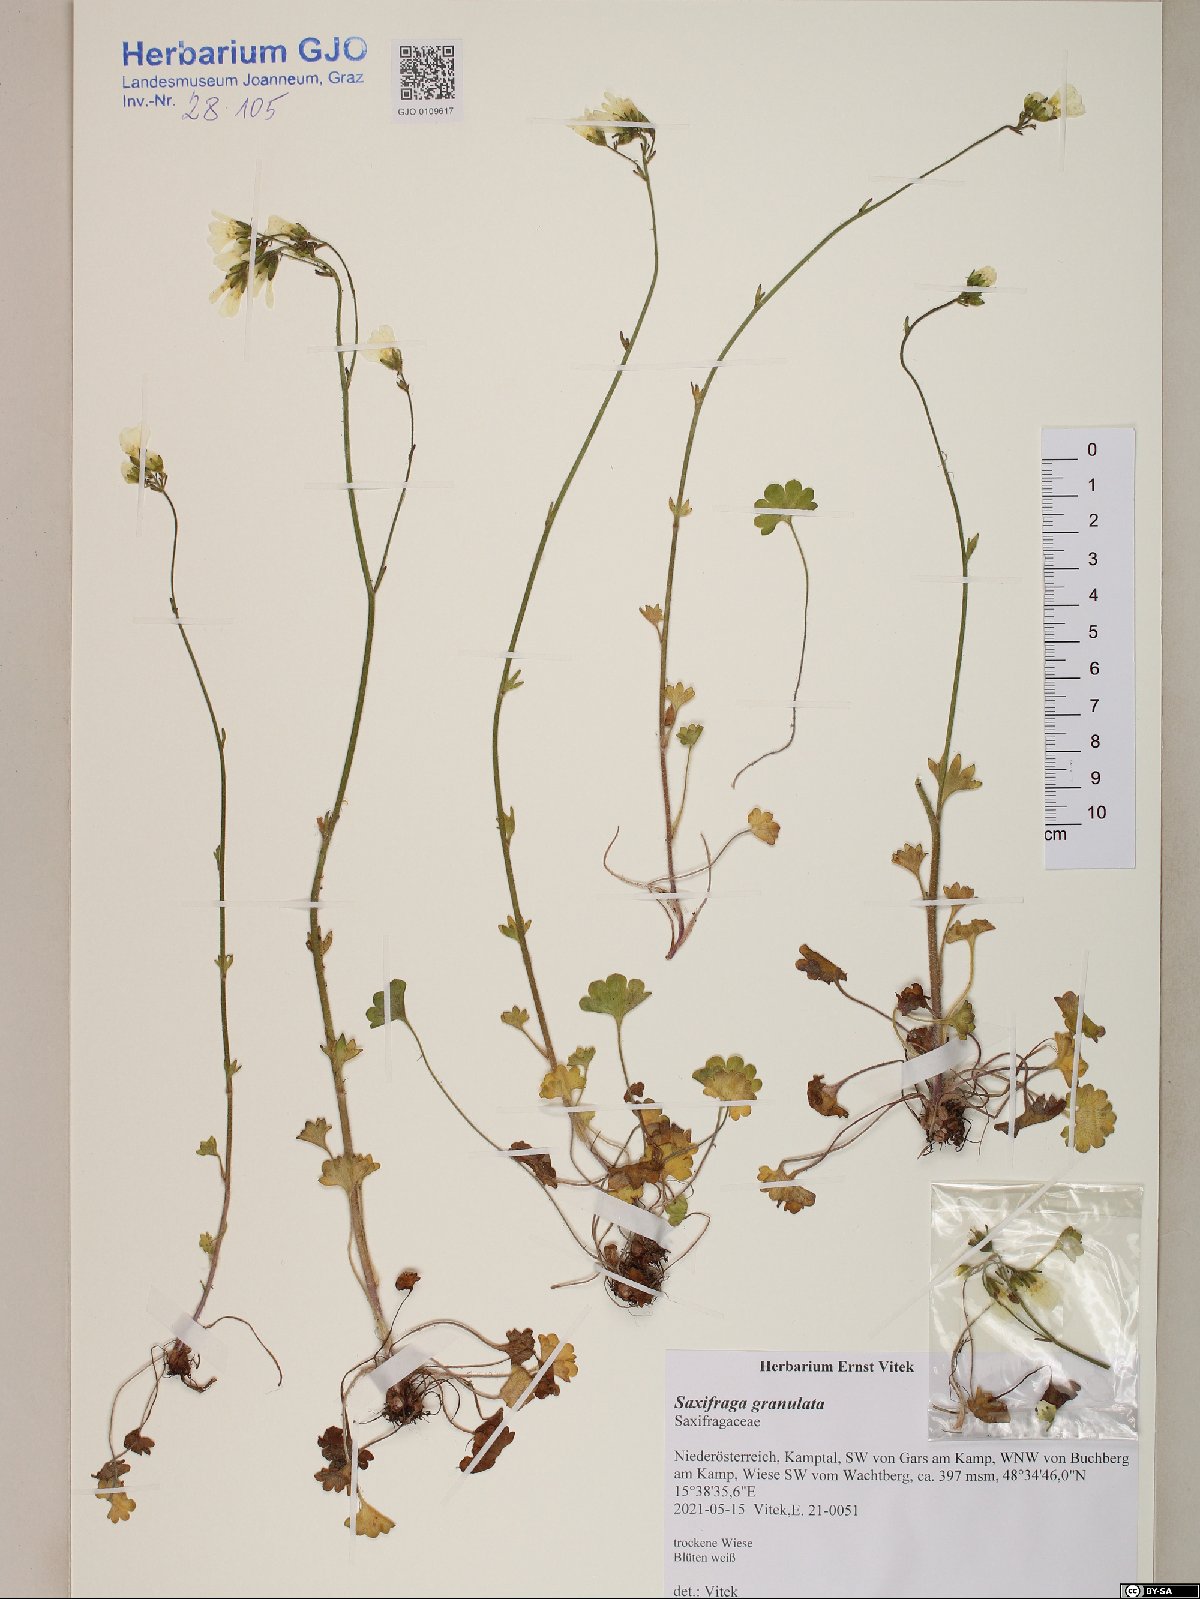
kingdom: Plantae
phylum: Tracheophyta
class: Magnoliopsida
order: Saxifragales
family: Saxifragaceae
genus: Saxifraga
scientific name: Saxifraga granulata
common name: Meadow saxifrage
